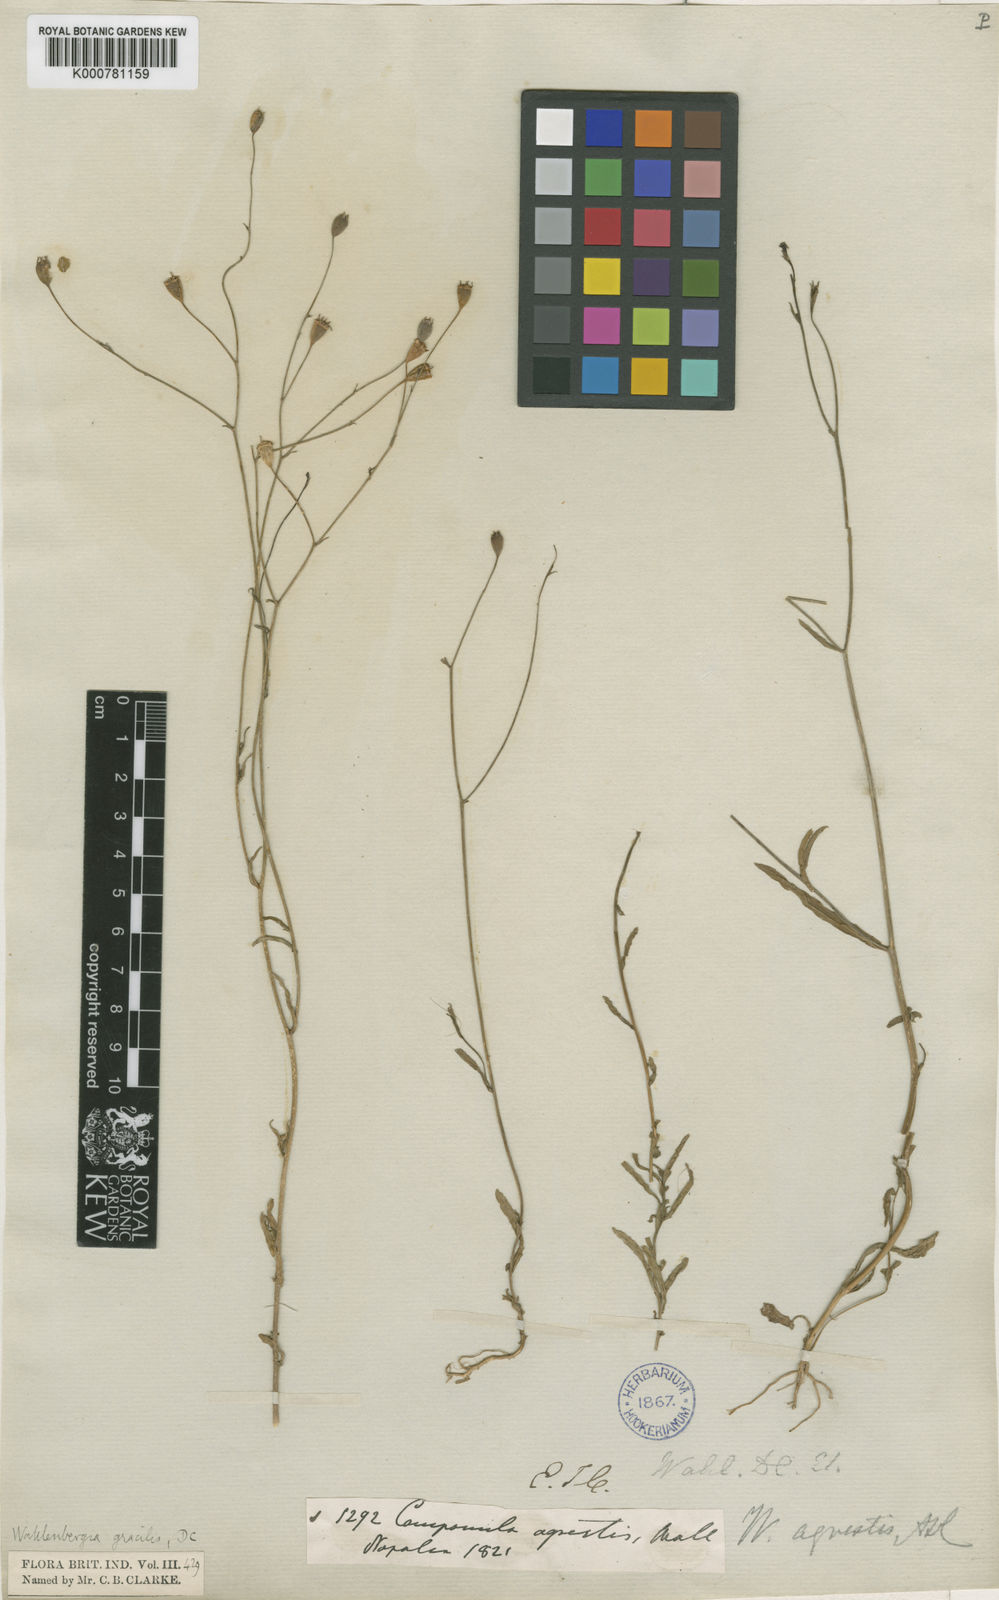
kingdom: Plantae
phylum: Tracheophyta
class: Magnoliopsida
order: Asterales
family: Campanulaceae
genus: Wahlenbergia
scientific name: Wahlenbergia marginata
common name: Southern rockbell
